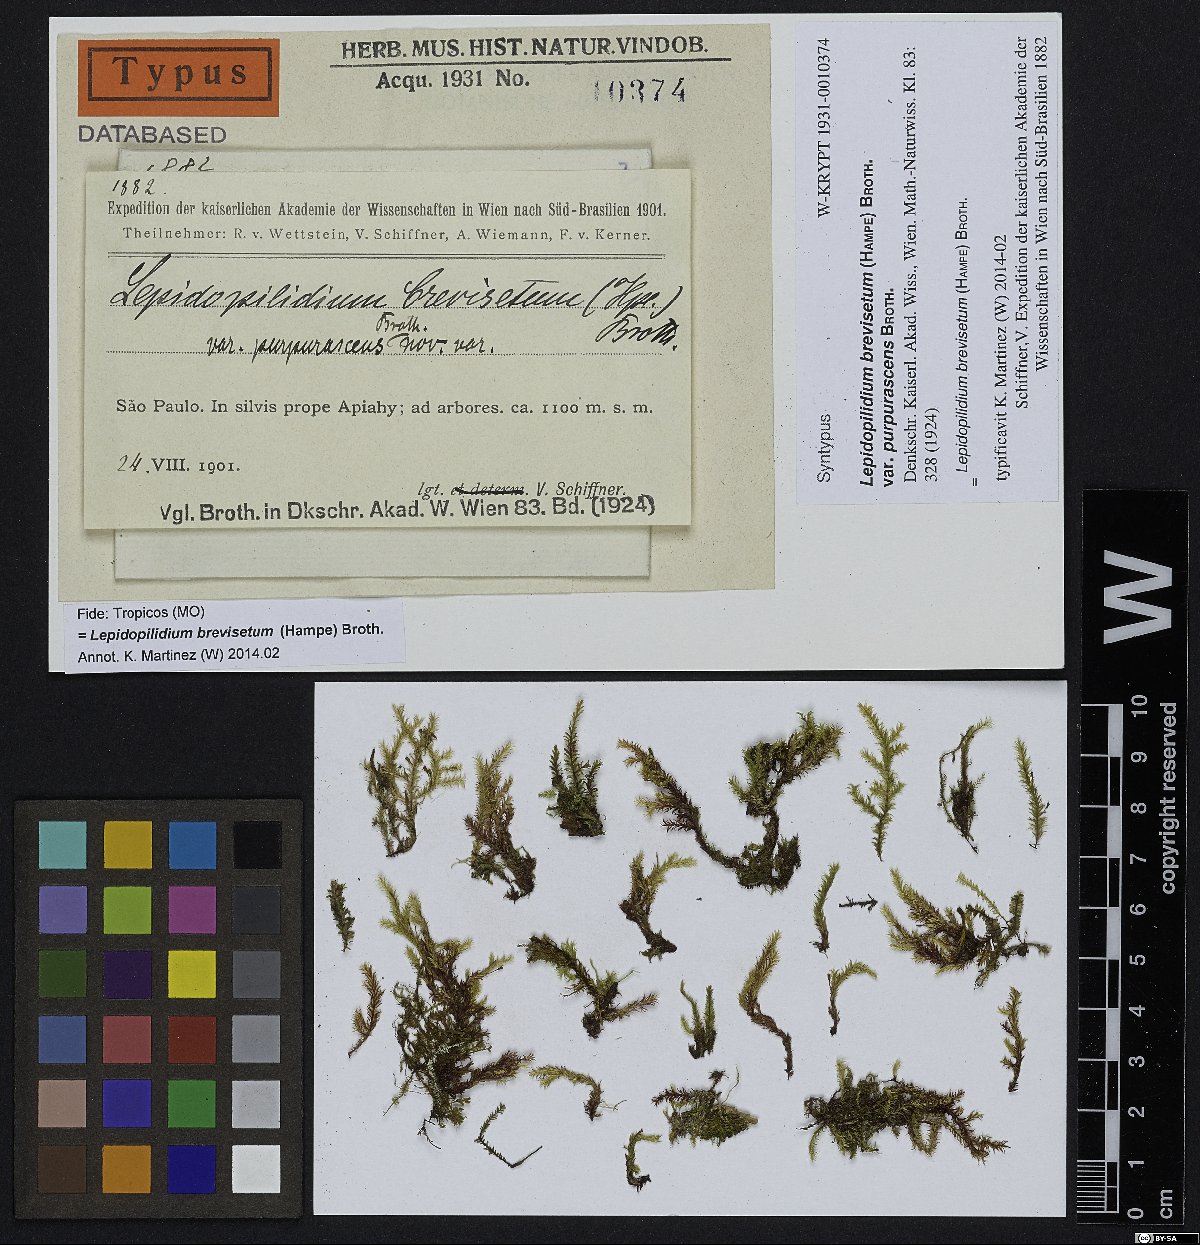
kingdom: Plantae
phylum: Bryophyta
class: Bryopsida
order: Hookeriales
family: Pilotrichaceae
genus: Lepidopilidium
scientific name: Lepidopilidium brevisetum
